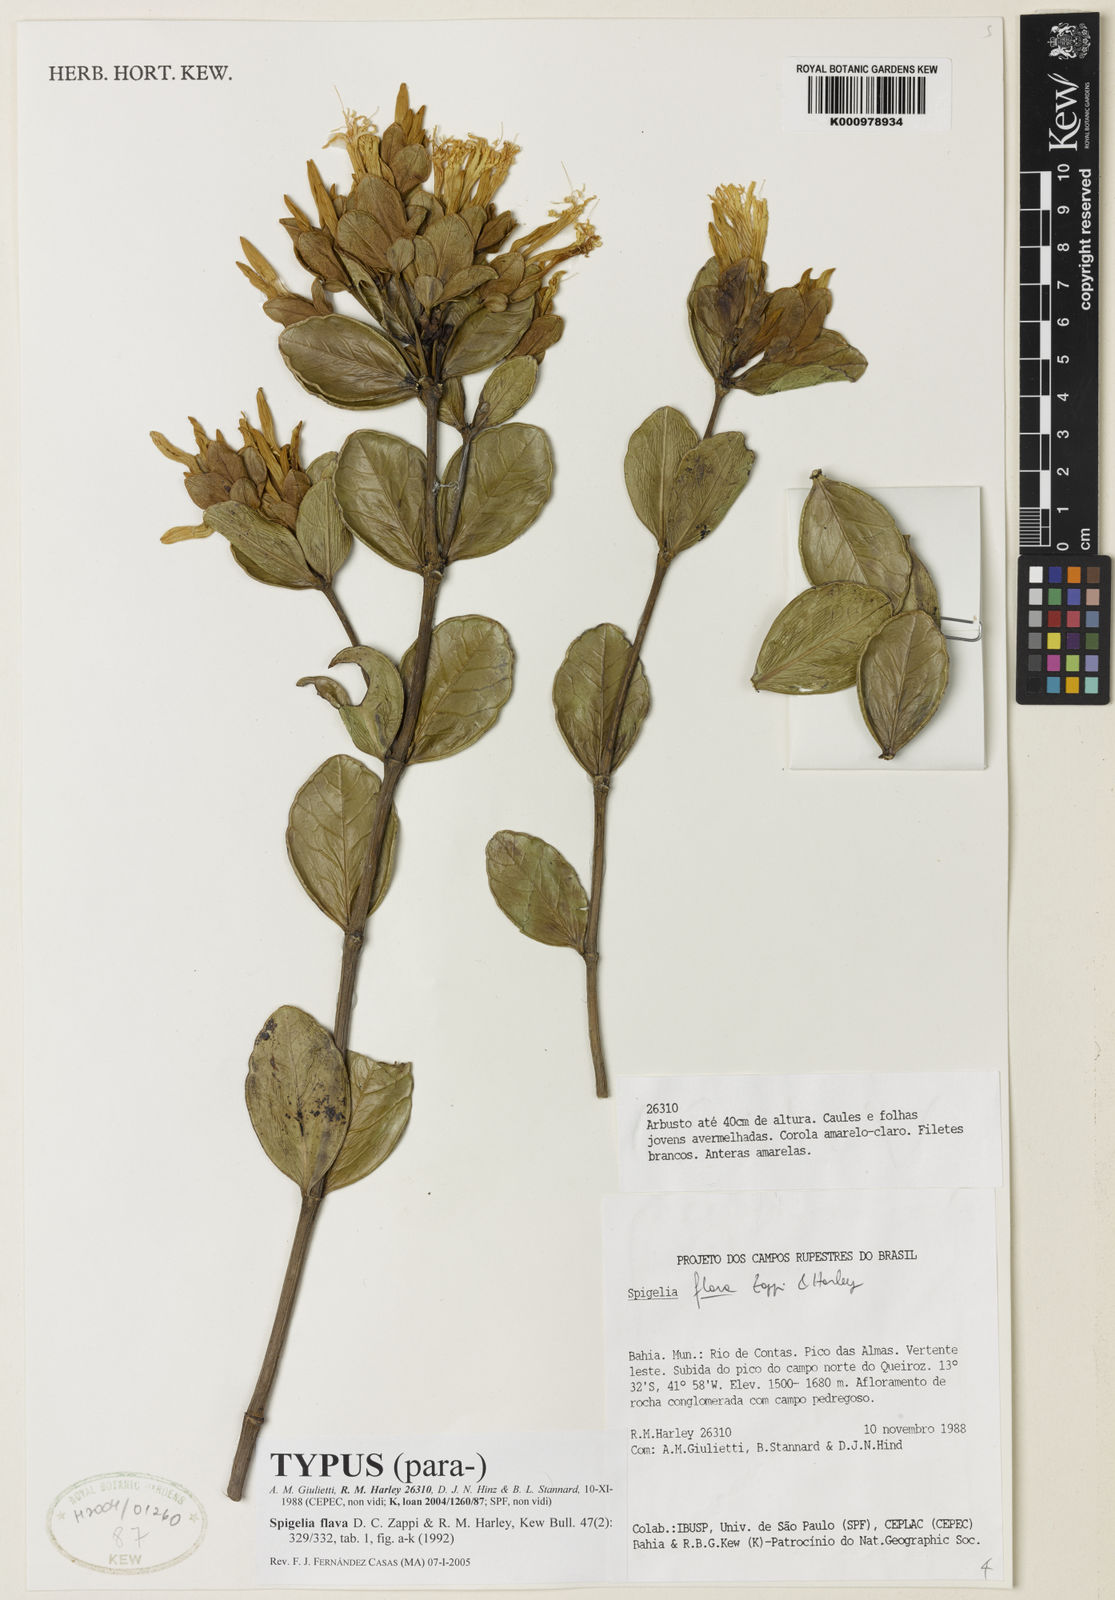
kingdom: Plantae
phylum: Tracheophyta
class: Magnoliopsida
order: Gentianales
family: Loganiaceae
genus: Spigelia
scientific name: Spigelia
